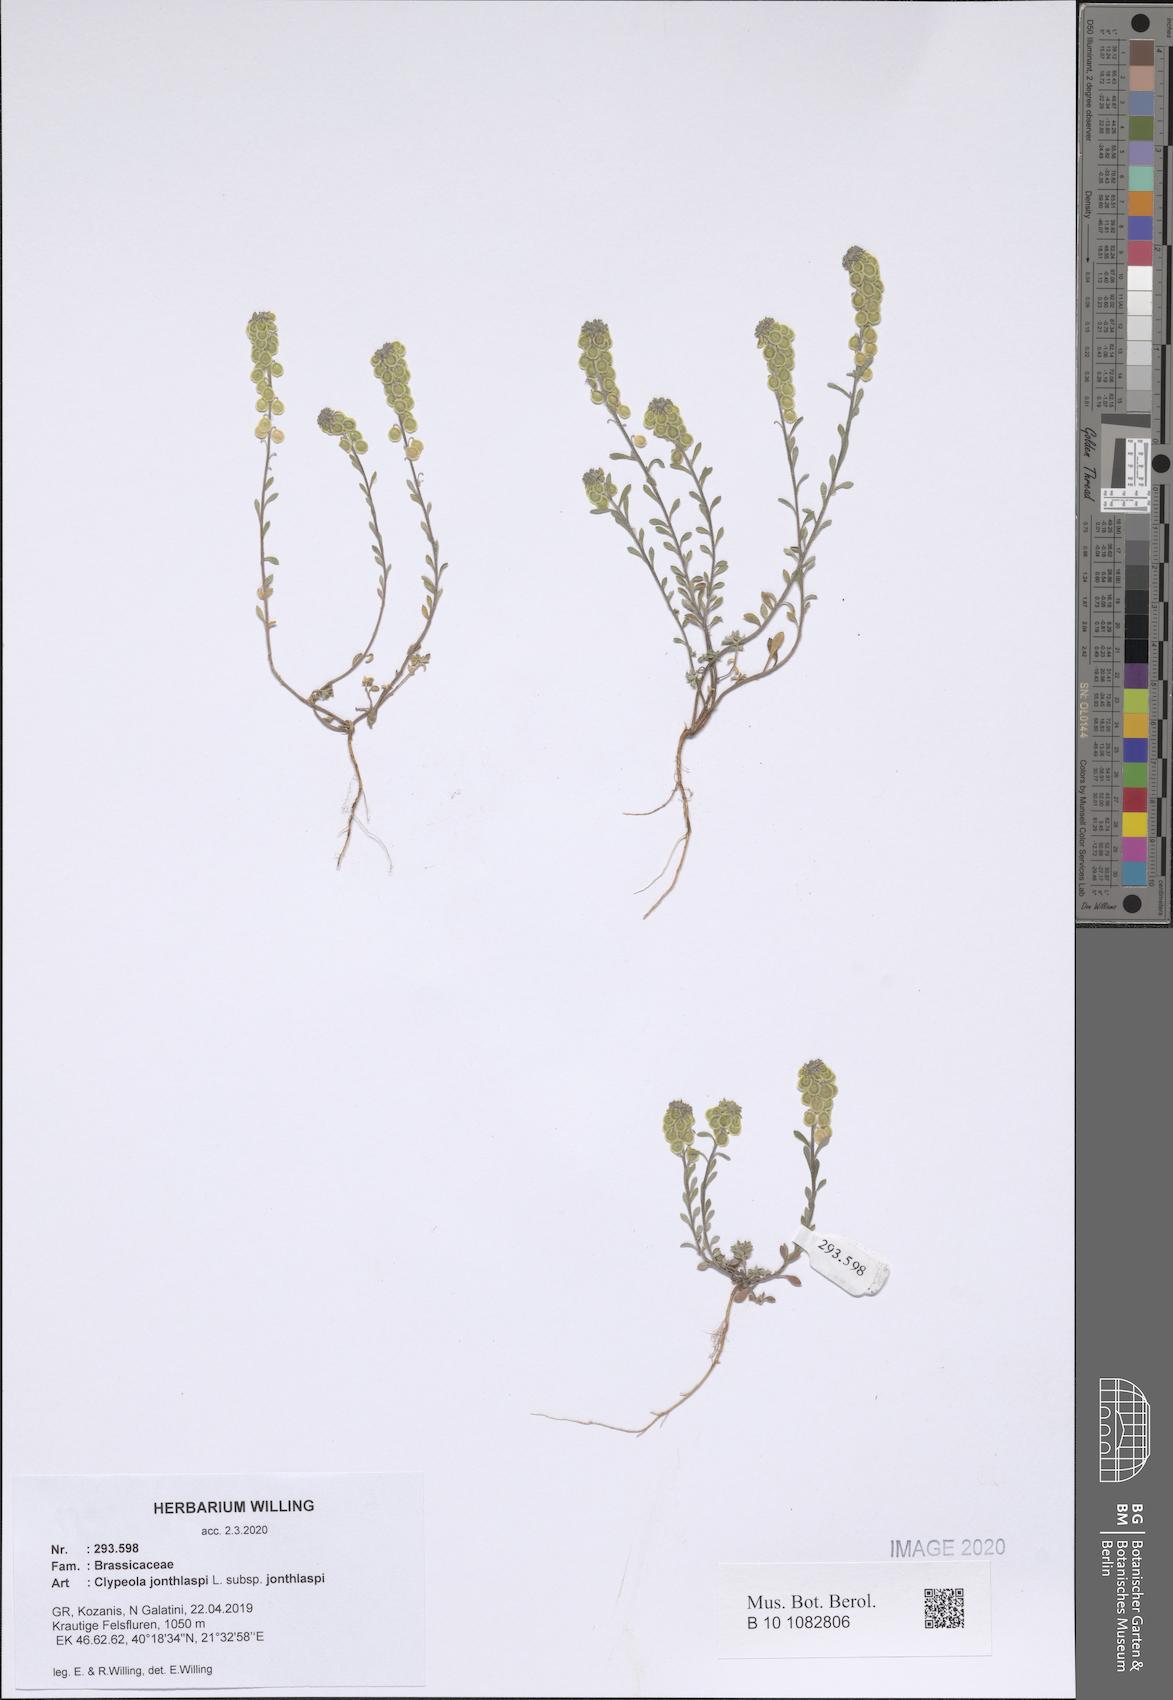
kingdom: Plantae
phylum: Tracheophyta
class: Magnoliopsida
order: Brassicales
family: Brassicaceae
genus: Clypeola
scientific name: Clypeola jonthlaspi
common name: Disk cress
